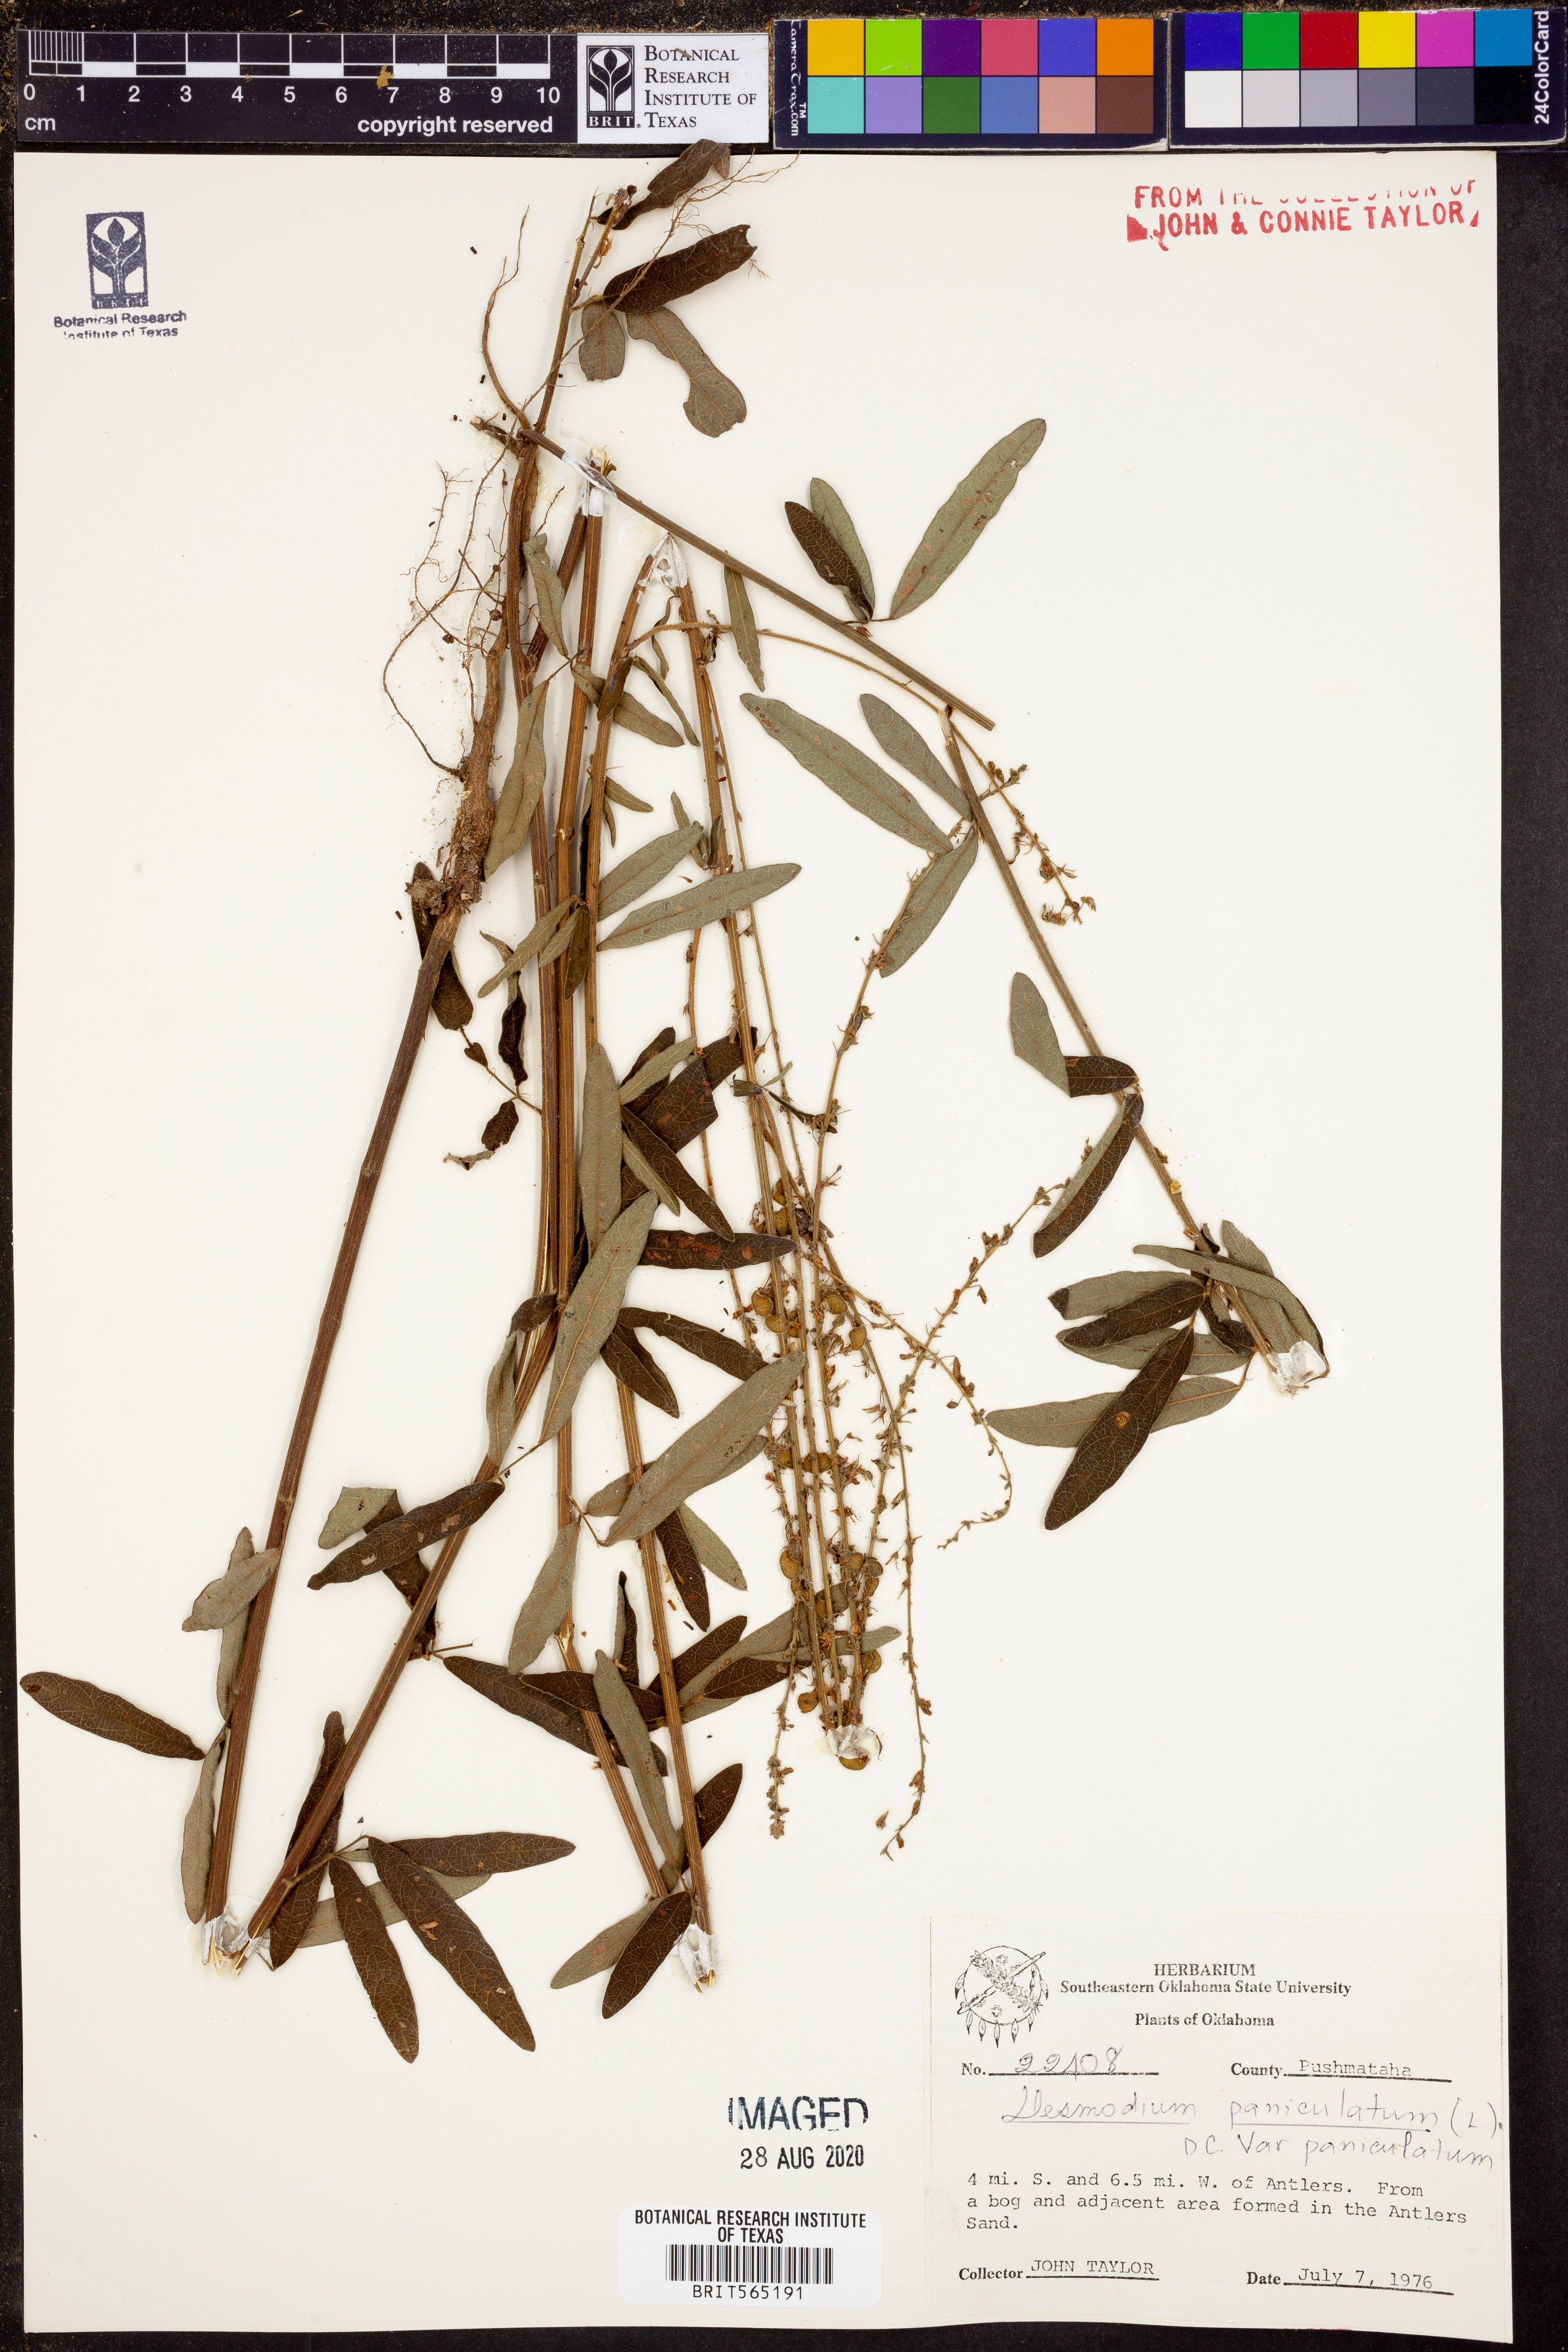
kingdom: Plantae
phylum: Tracheophyta
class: Magnoliopsida
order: Fabales
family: Fabaceae
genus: Desmodium
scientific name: Desmodium paniculatum
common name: Panicled tick-clover
